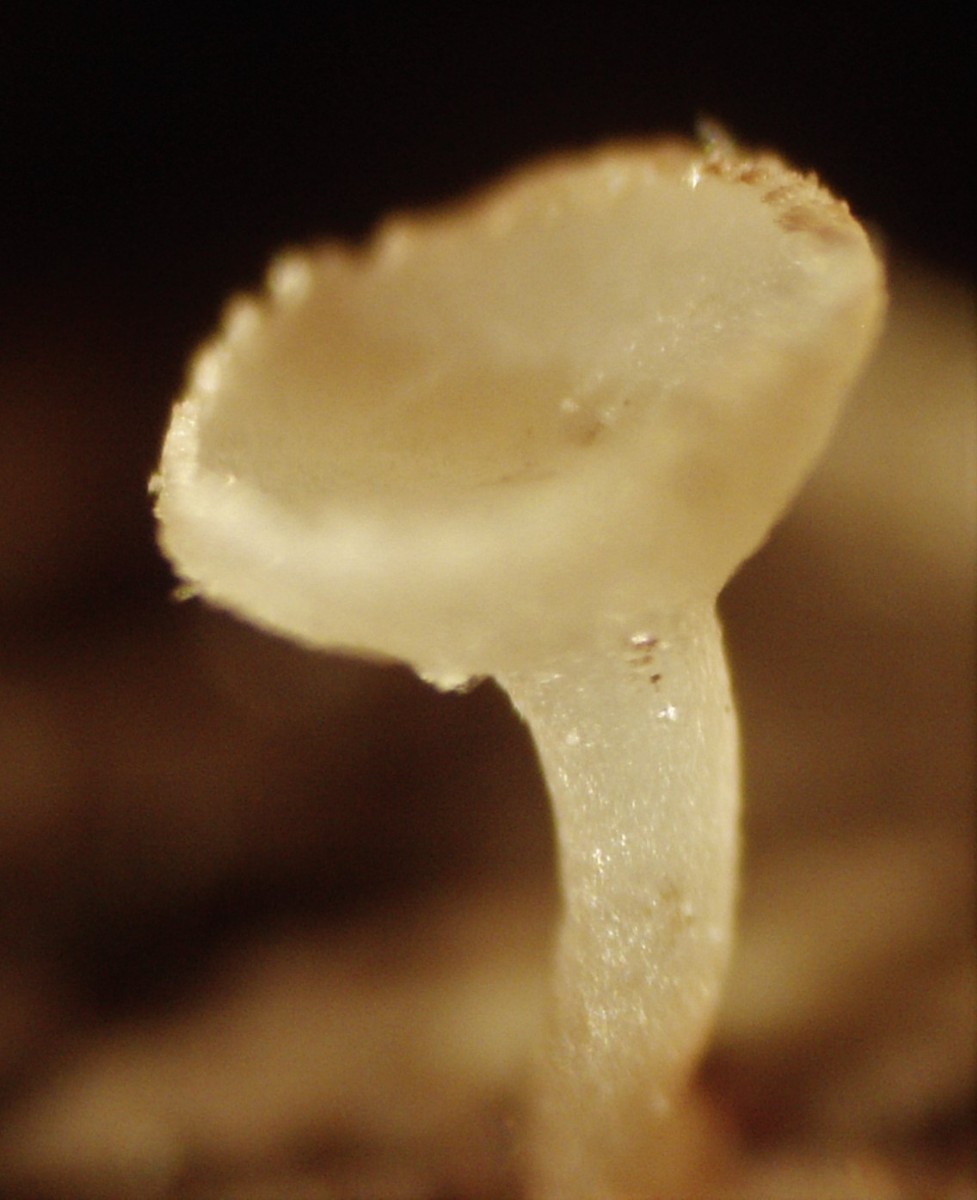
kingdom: Fungi
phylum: Ascomycota
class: Leotiomycetes
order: Helotiales
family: Helotiaceae
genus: Cyathicula
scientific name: Cyathicula cyathoidea
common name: pokal-stilkskive
